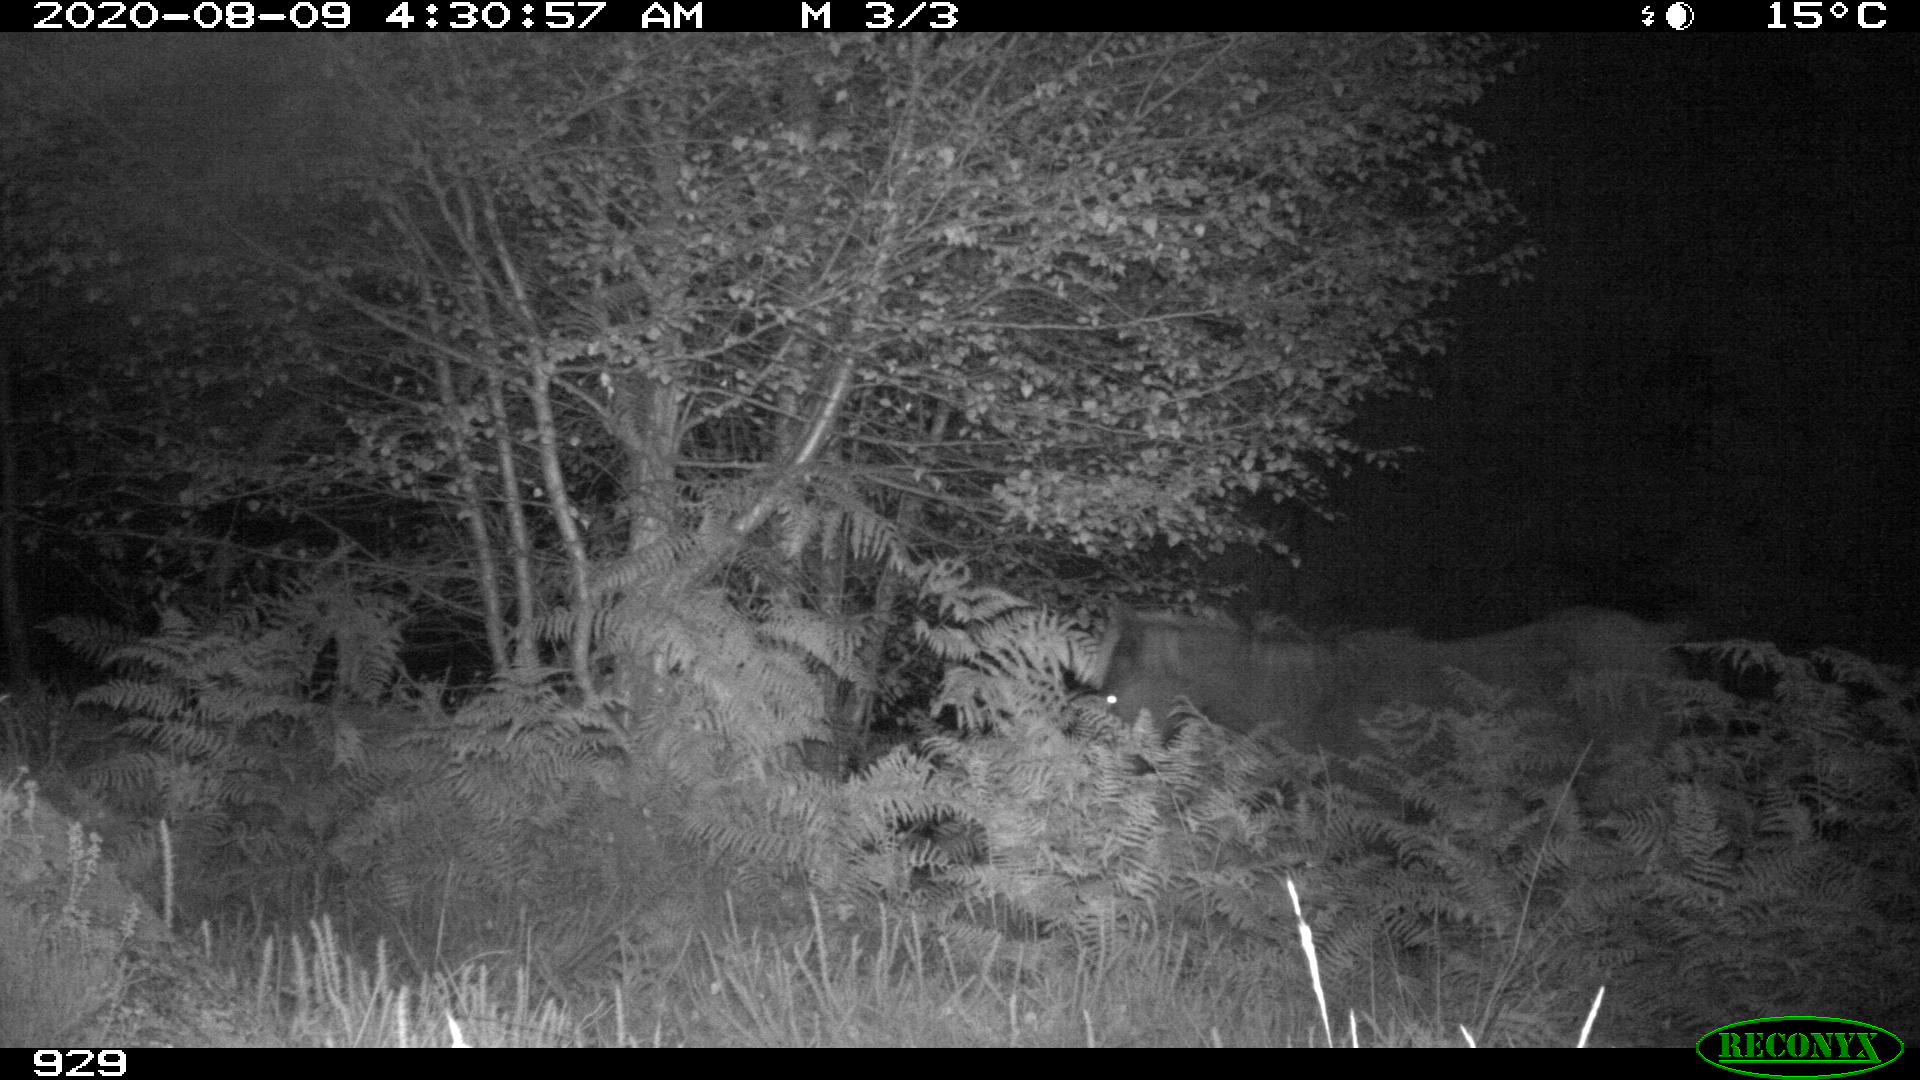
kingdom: Animalia
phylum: Chordata
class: Mammalia
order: Perissodactyla
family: Equidae
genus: Equus
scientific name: Equus caballus
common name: Horse
